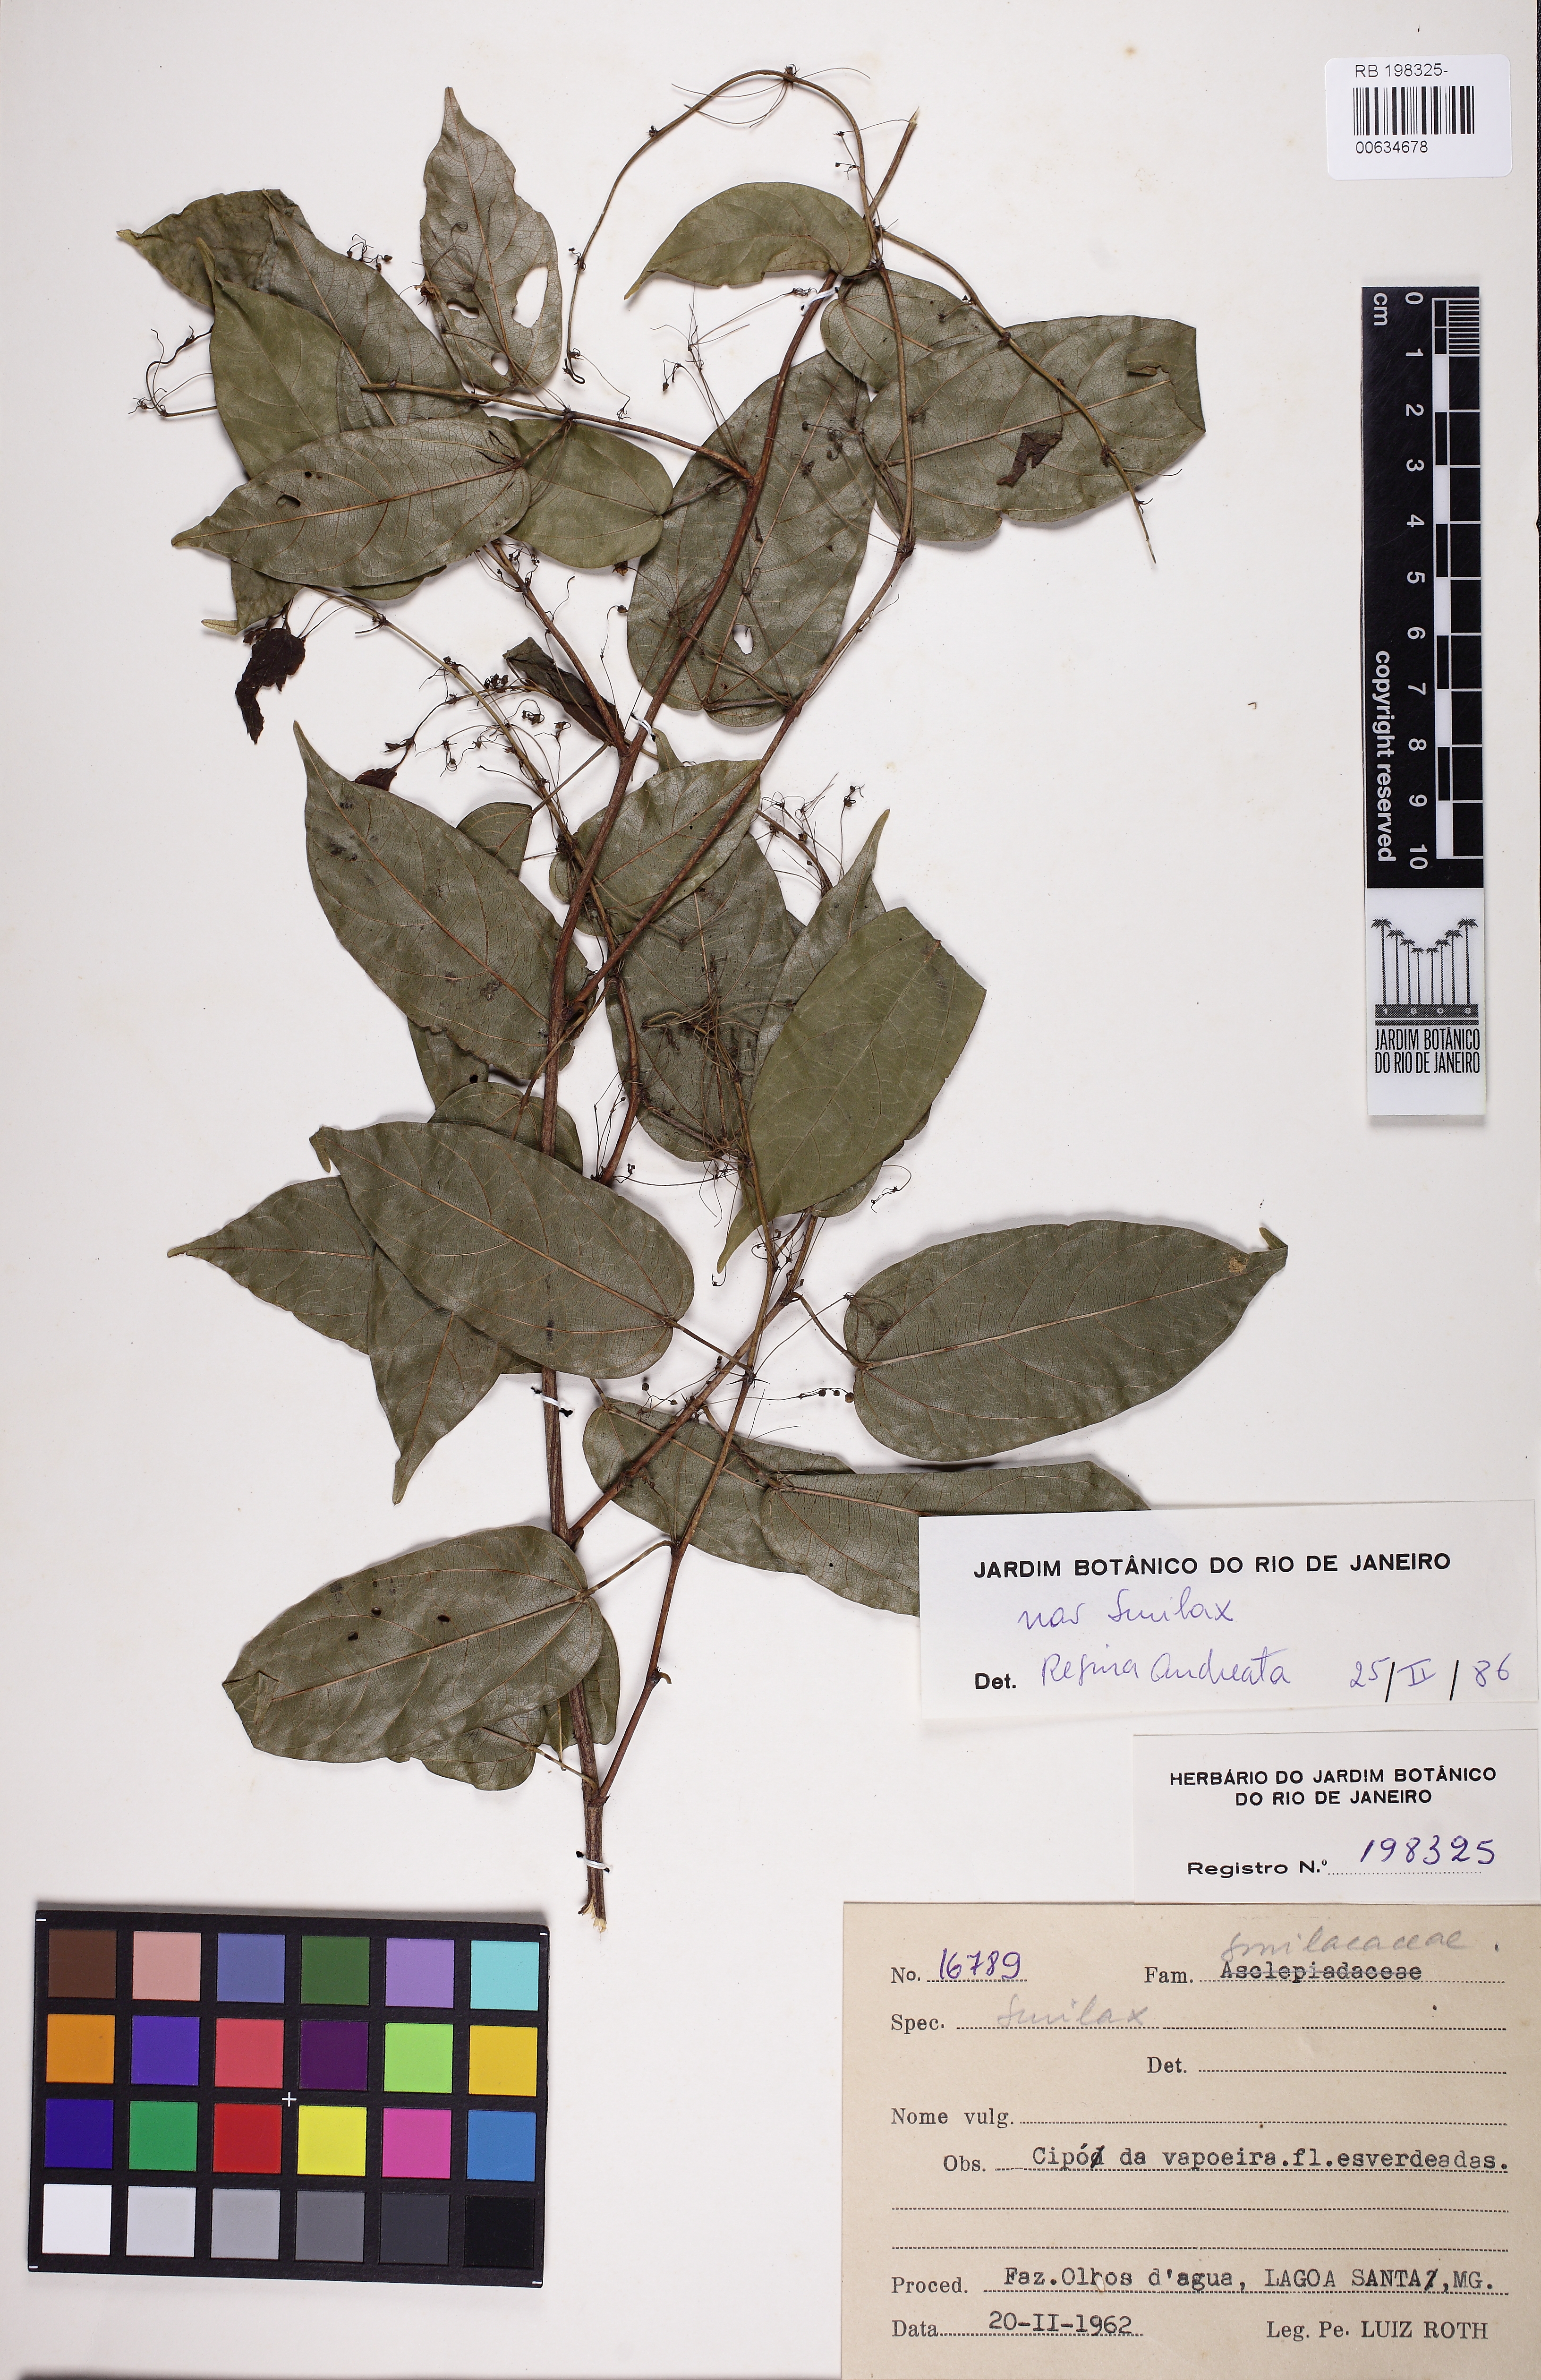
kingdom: Plantae
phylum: Tracheophyta
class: Liliopsida
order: Liliales
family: Smilacaceae
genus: Smilax
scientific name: Smilax
